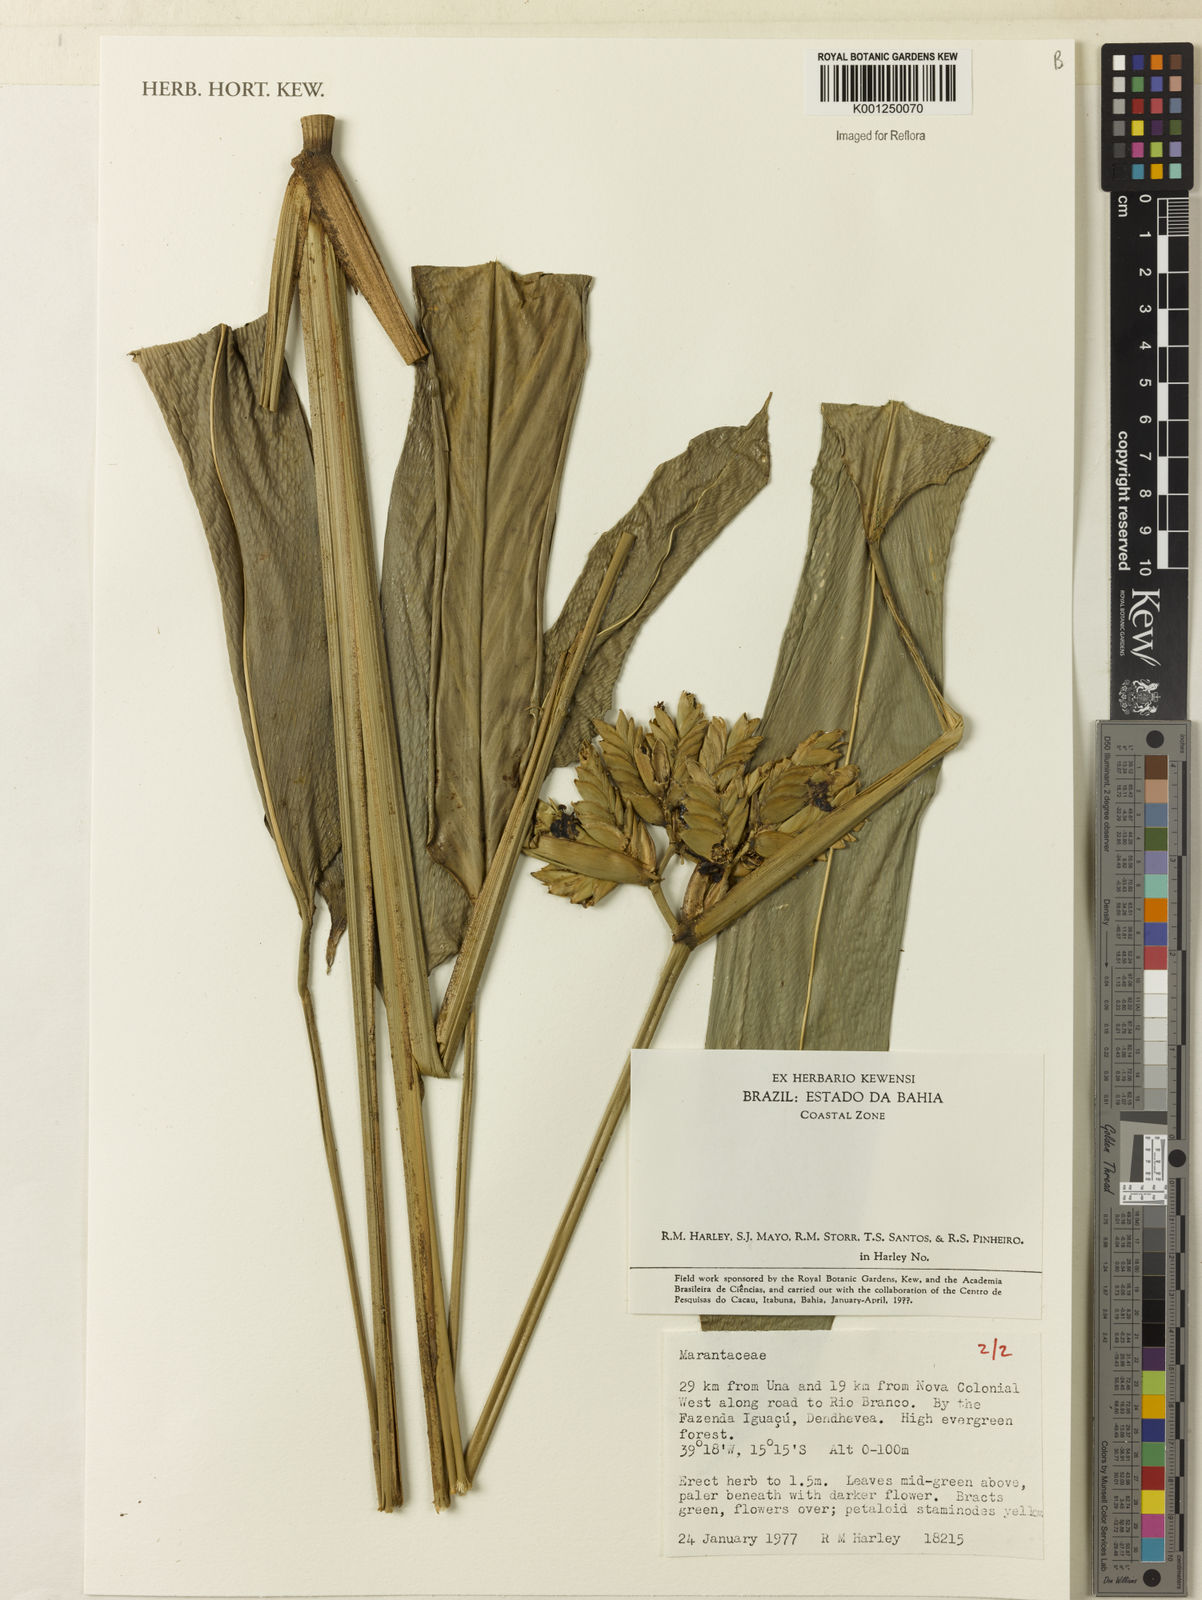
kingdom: Plantae
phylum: Tracheophyta
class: Liliopsida
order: Zingiberales
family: Marantaceae
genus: Ctenanthe
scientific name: Ctenanthe glabra
